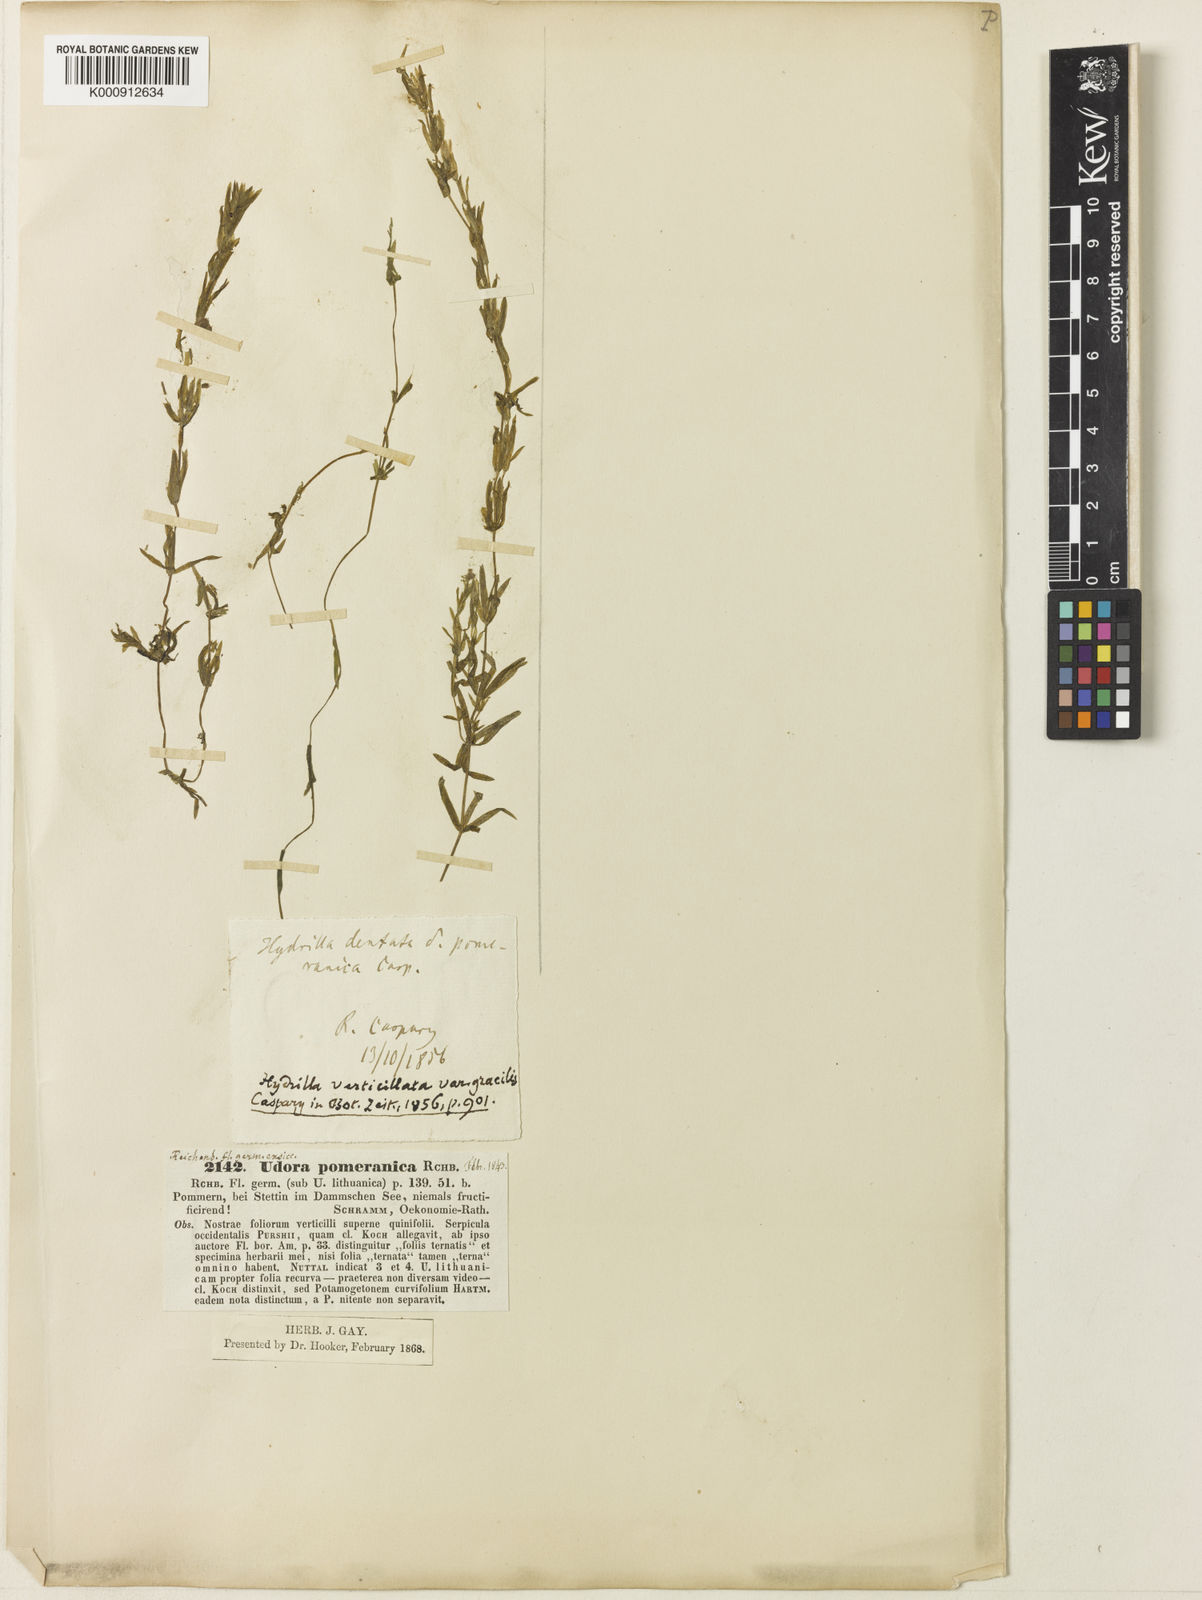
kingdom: Plantae
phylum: Tracheophyta
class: Liliopsida
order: Alismatales
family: Hydrocharitaceae
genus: Hydrilla
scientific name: Hydrilla verticillata
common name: Florida-elodea
